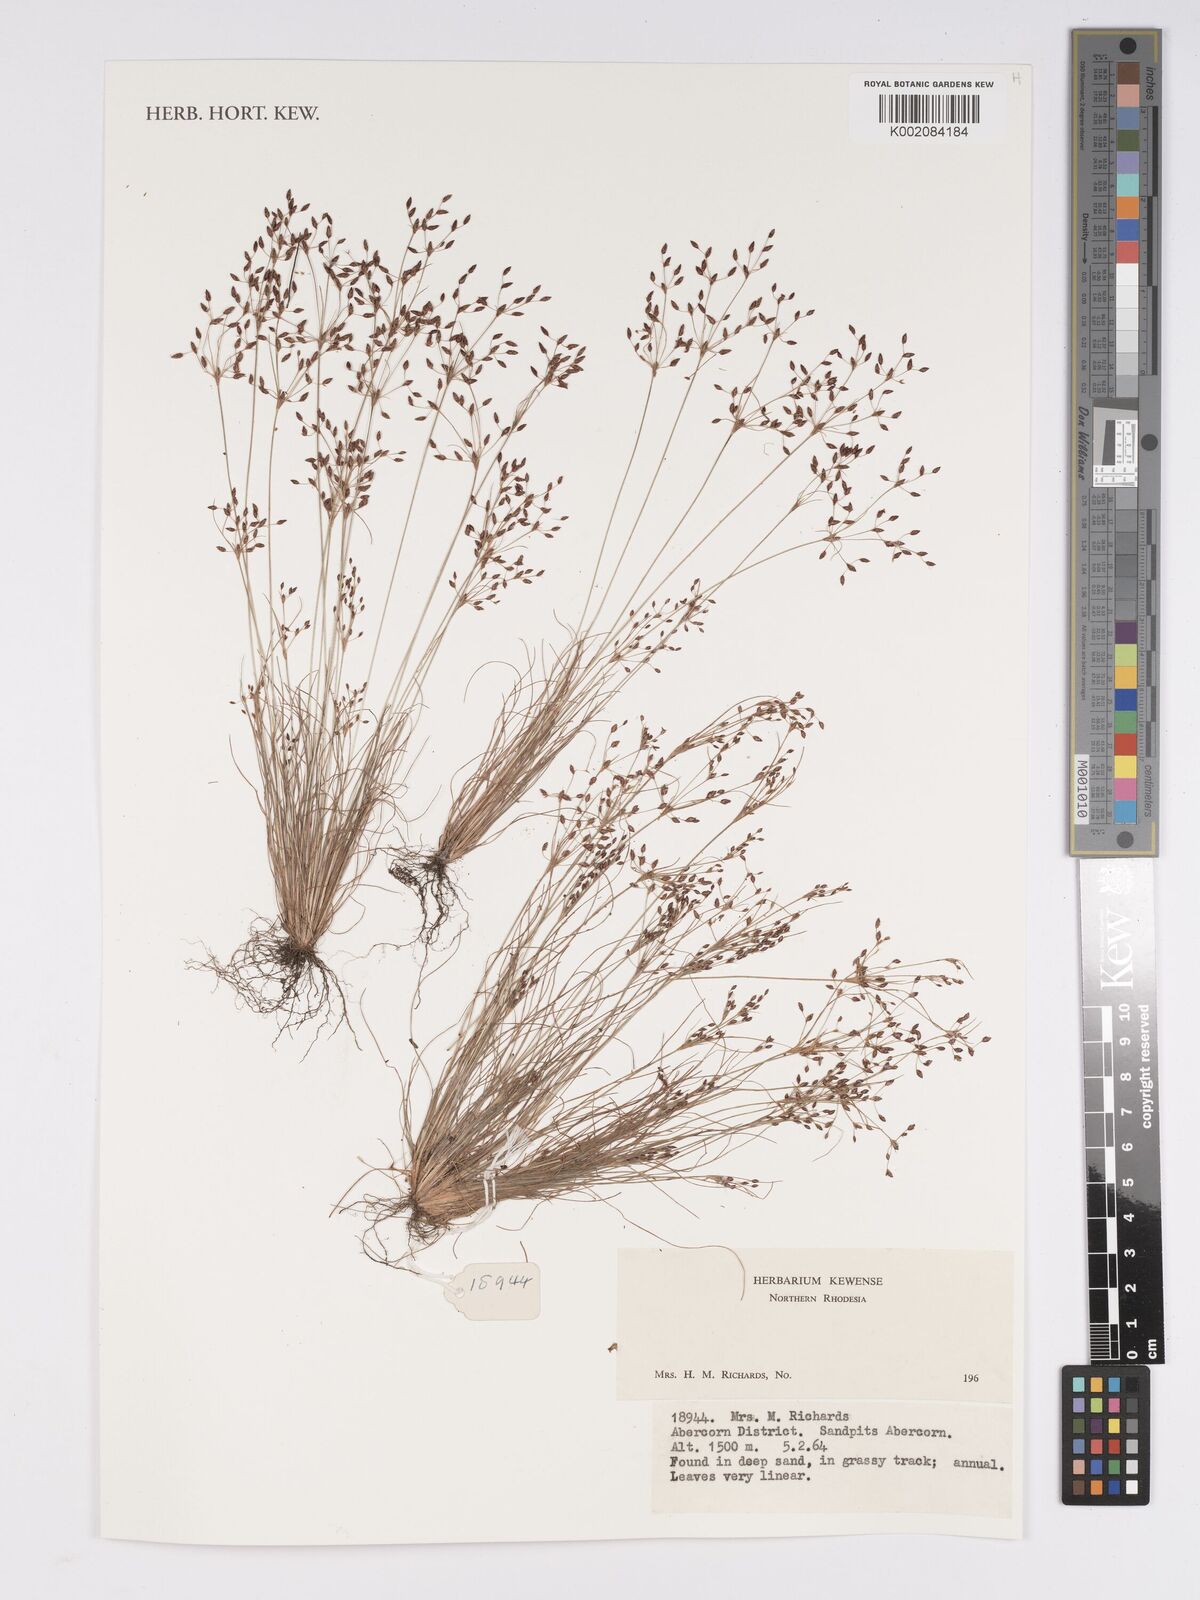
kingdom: Plantae
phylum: Tracheophyta
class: Liliopsida
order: Poales
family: Cyperaceae
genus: Bulbostylis
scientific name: Bulbostylis
